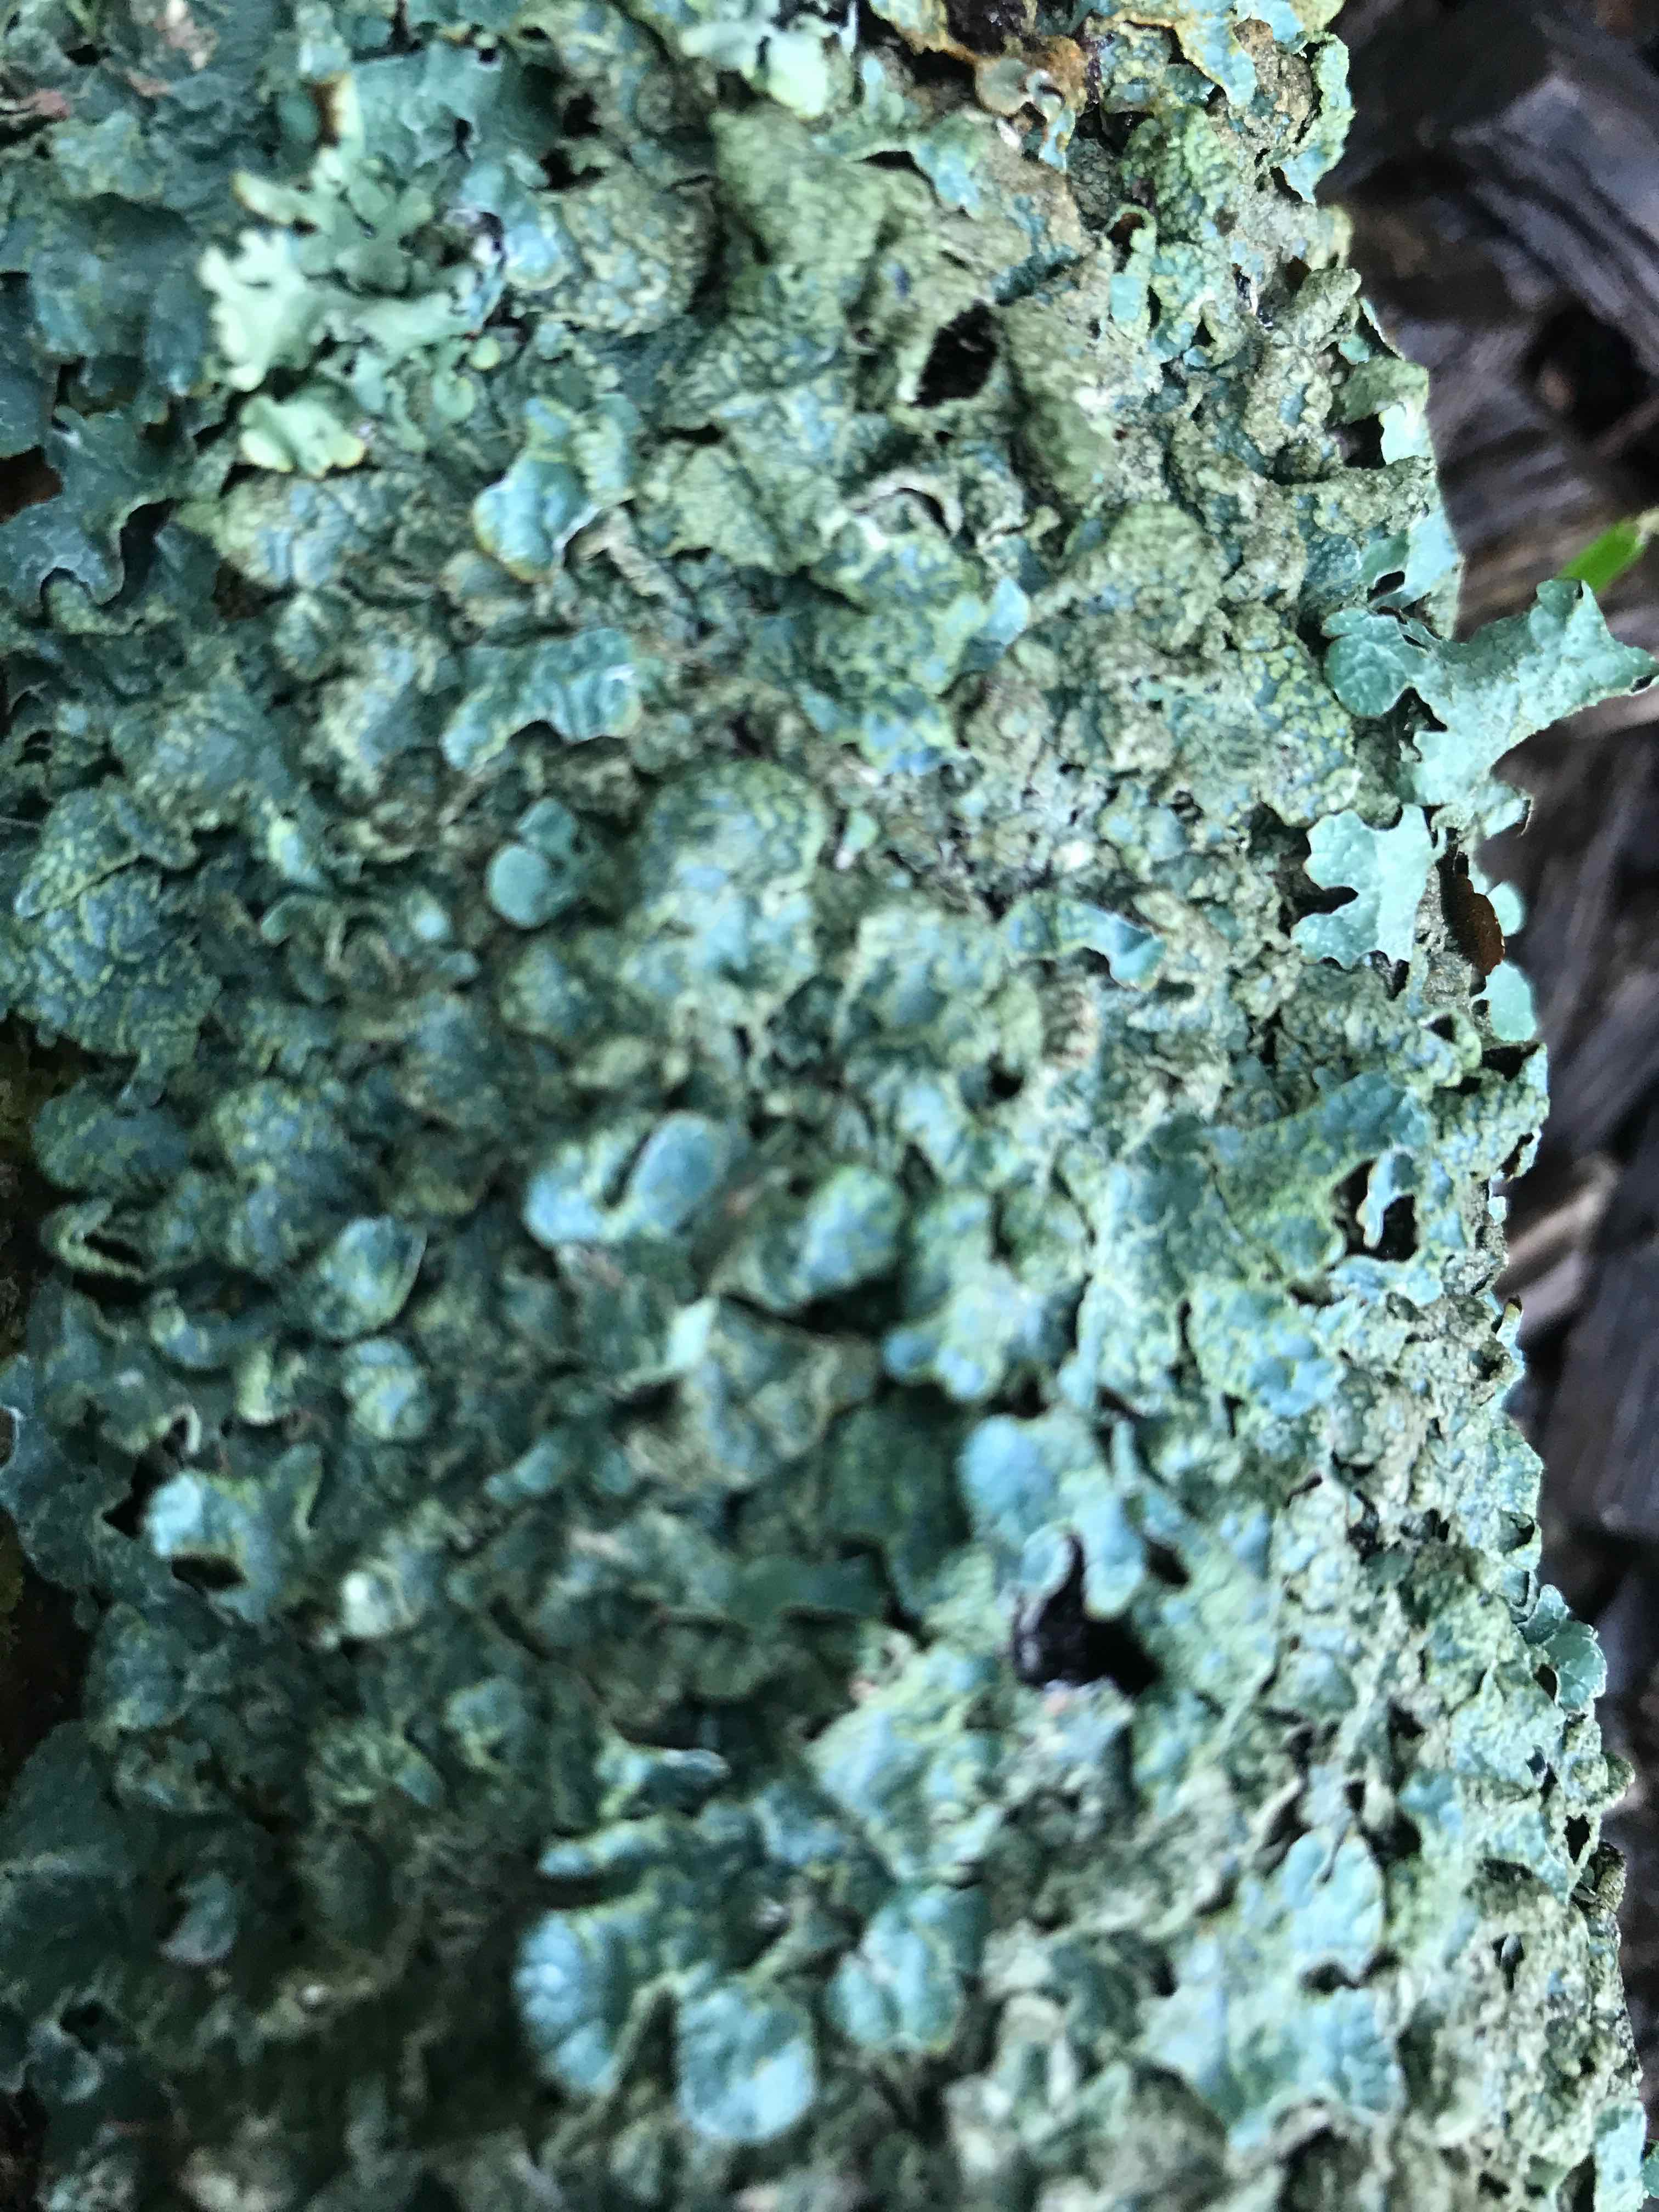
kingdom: Fungi
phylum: Ascomycota
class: Lecanoromycetes
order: Lecanorales
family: Parmeliaceae
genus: Parmelia
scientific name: Parmelia sulcata
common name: rynket skållav
